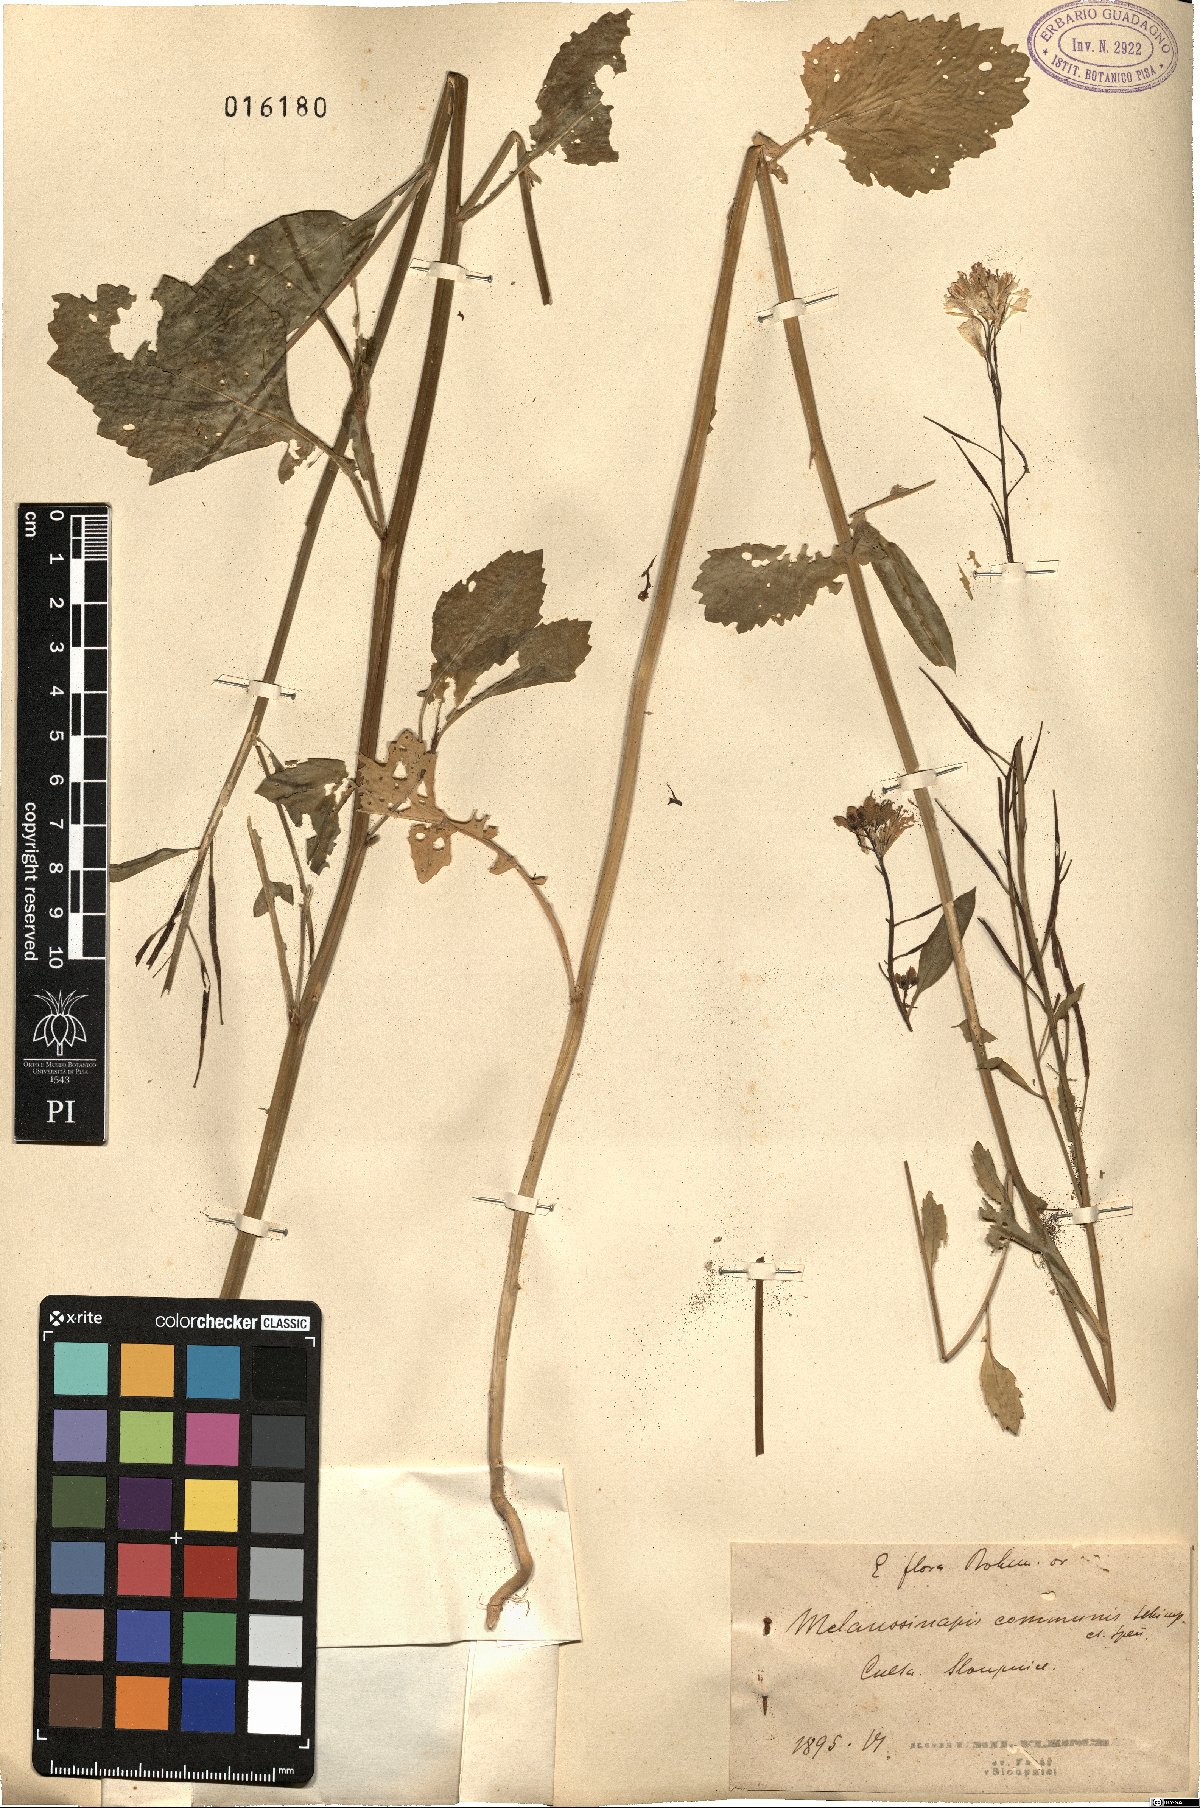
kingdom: Plantae
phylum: Tracheophyta
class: Magnoliopsida
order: Brassicales
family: Brassicaceae
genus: Brassica
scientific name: Brassica nigra
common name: Black mustard
